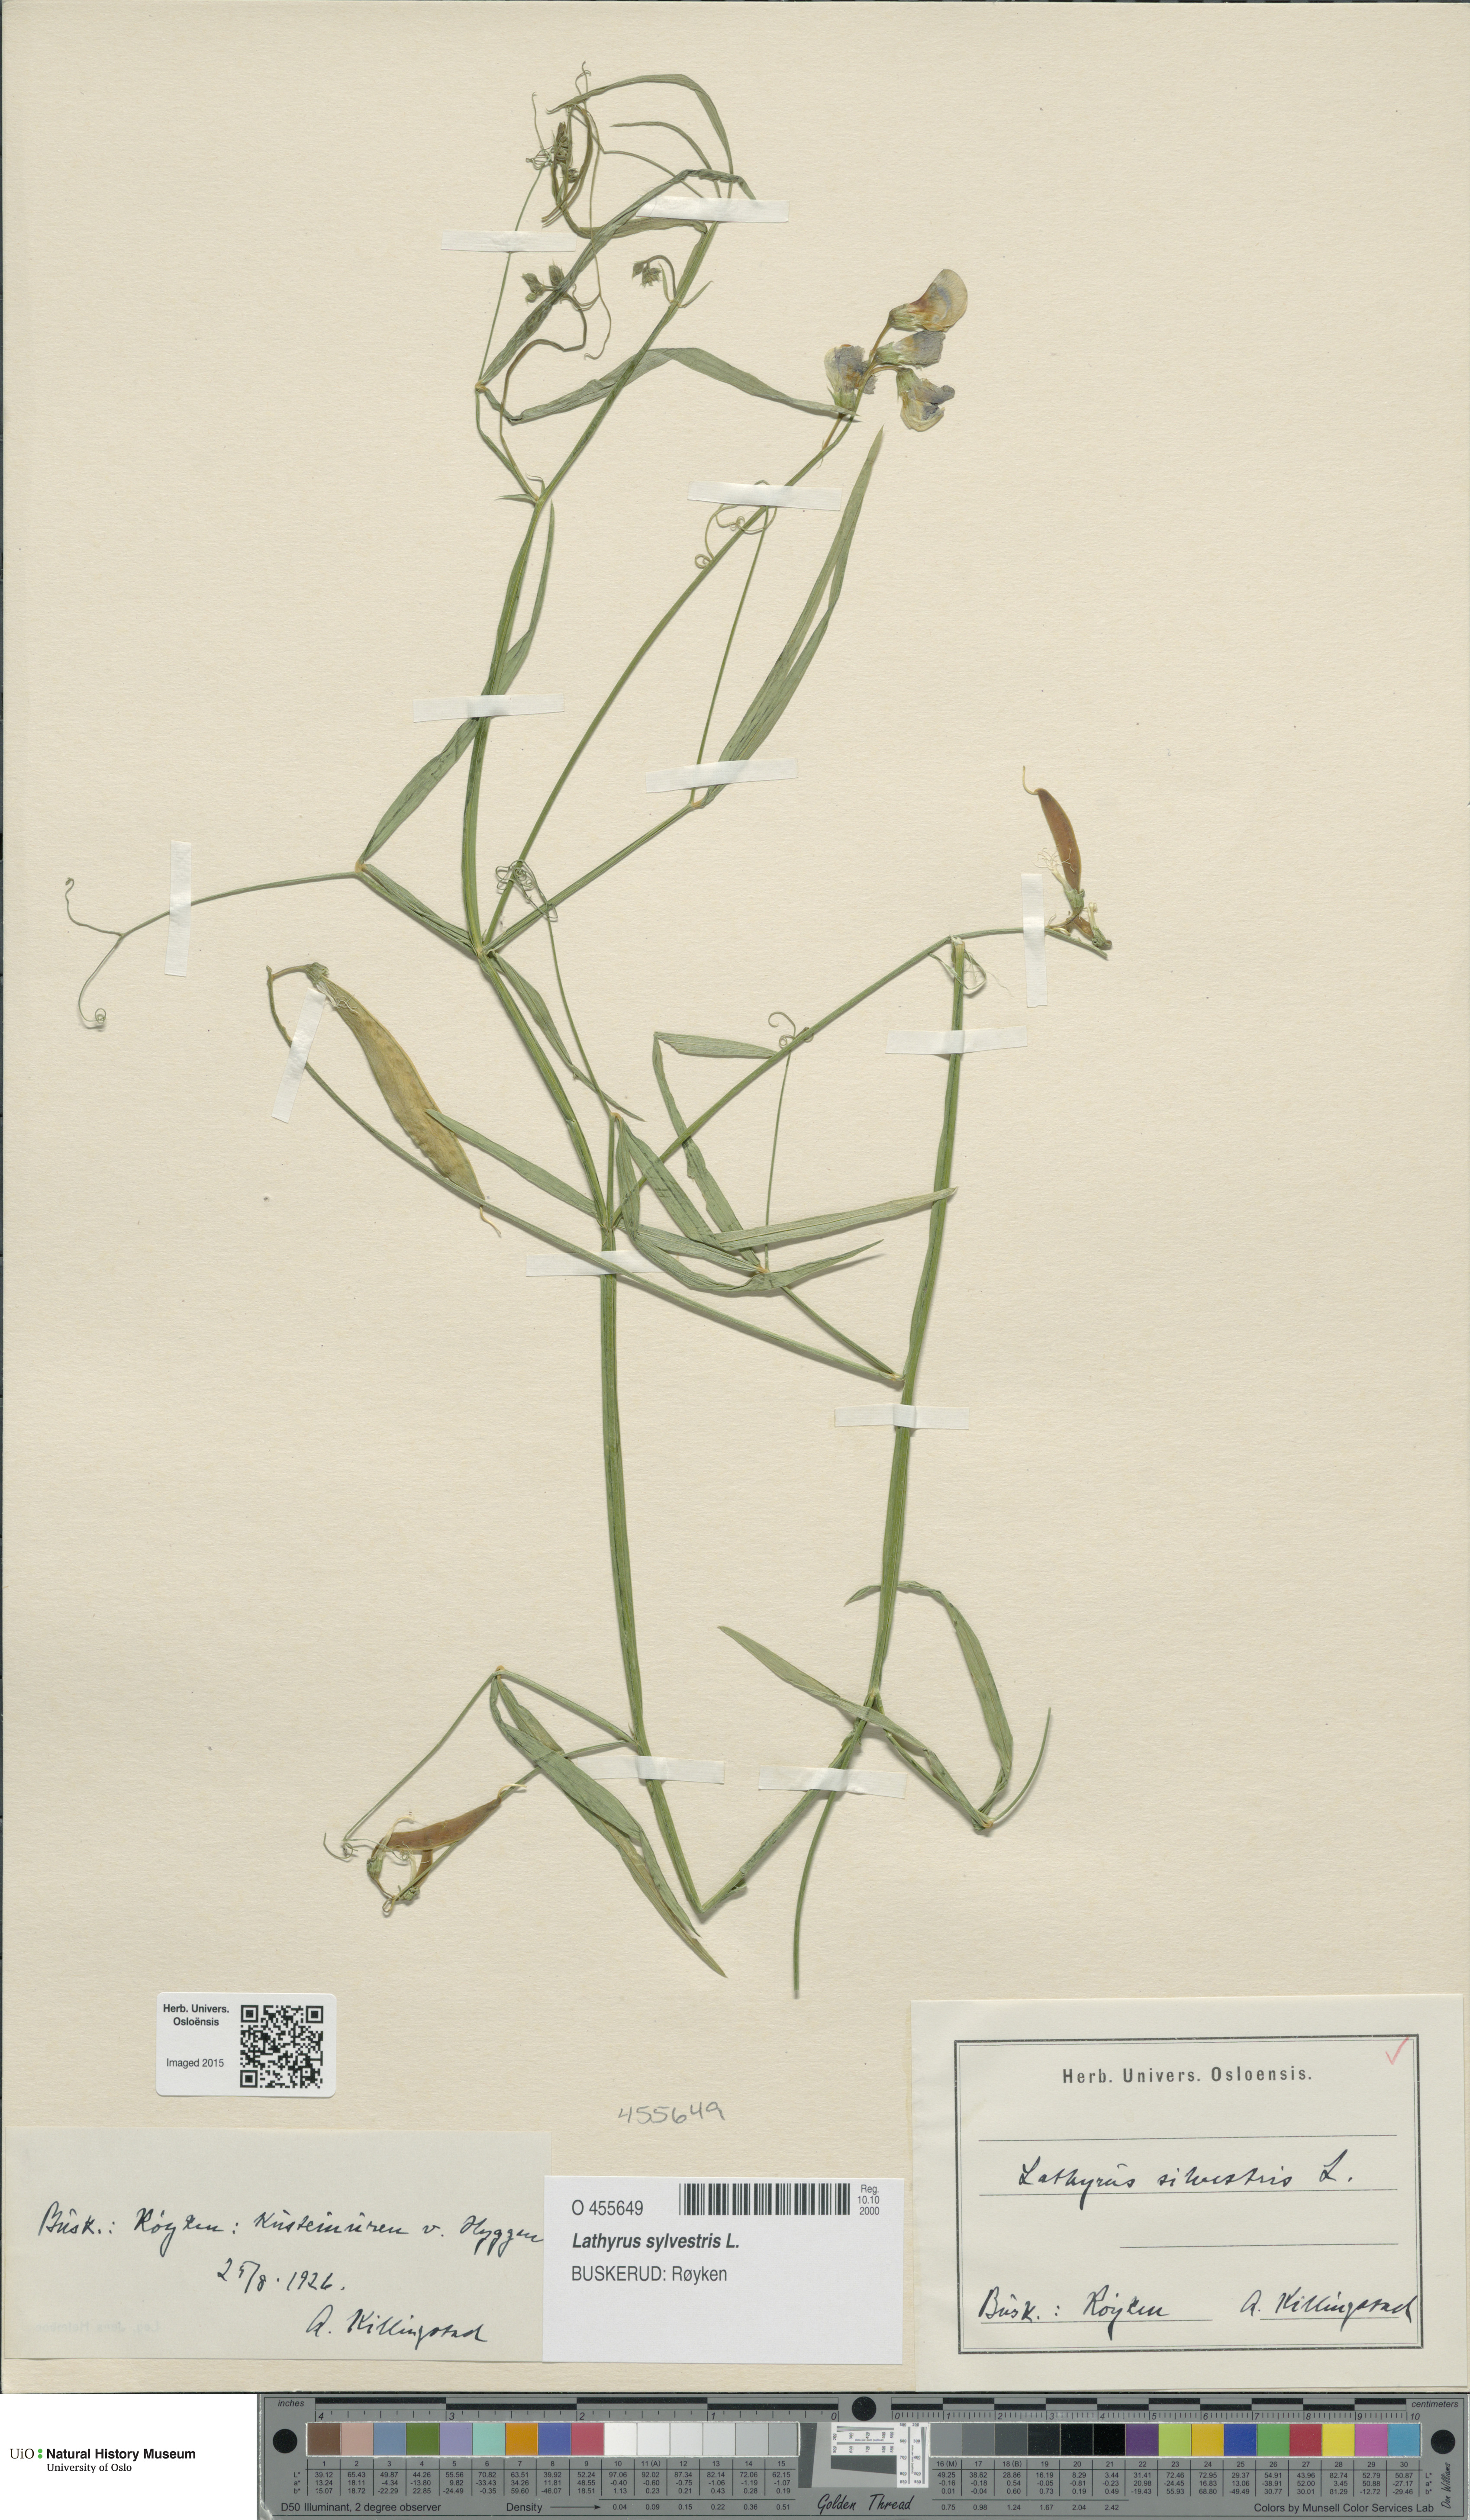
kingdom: Plantae
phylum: Tracheophyta
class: Magnoliopsida
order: Fabales
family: Fabaceae
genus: Lathyrus
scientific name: Lathyrus sylvestris
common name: Flat pea
